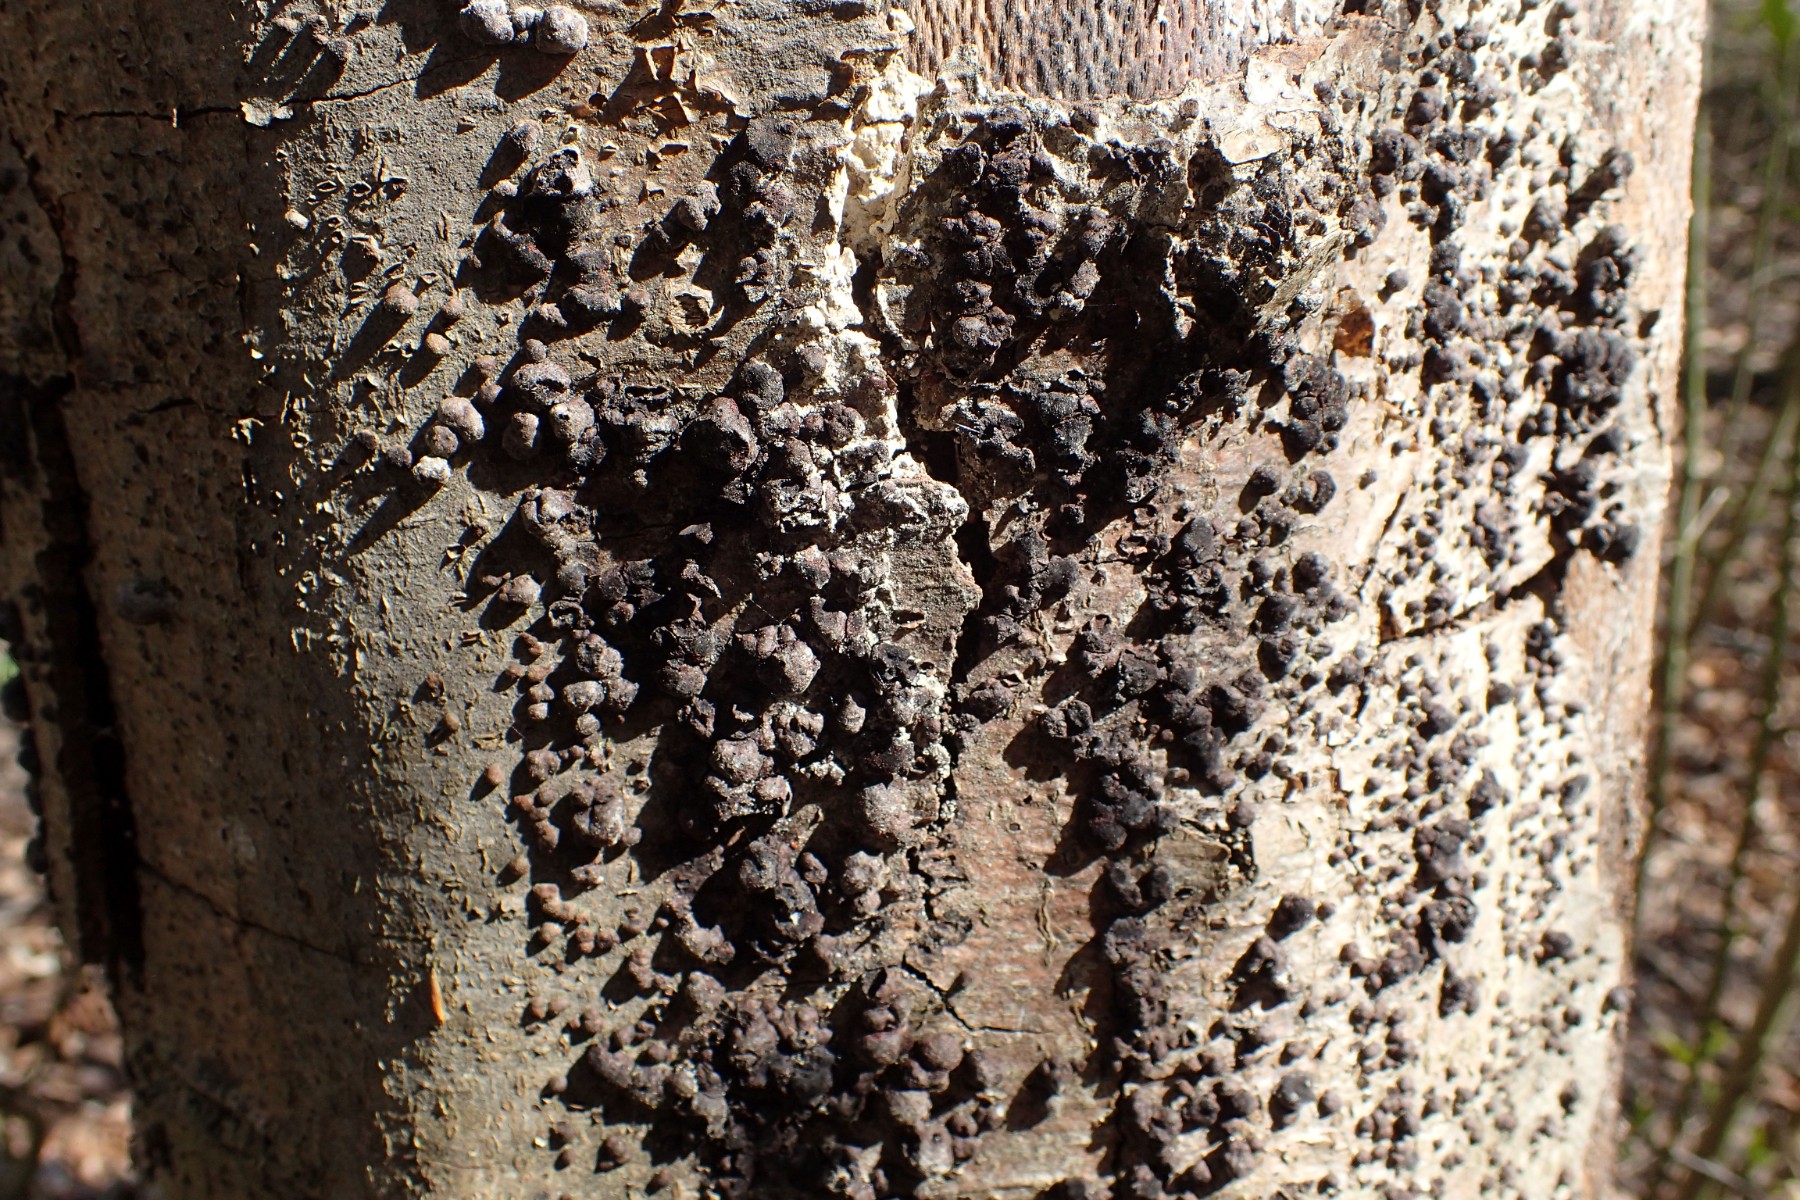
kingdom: Fungi
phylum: Ascomycota
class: Sordariomycetes
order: Xylariales
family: Hypoxylaceae
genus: Hypoxylon
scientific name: Hypoxylon fragiforme
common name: kuljordbær
